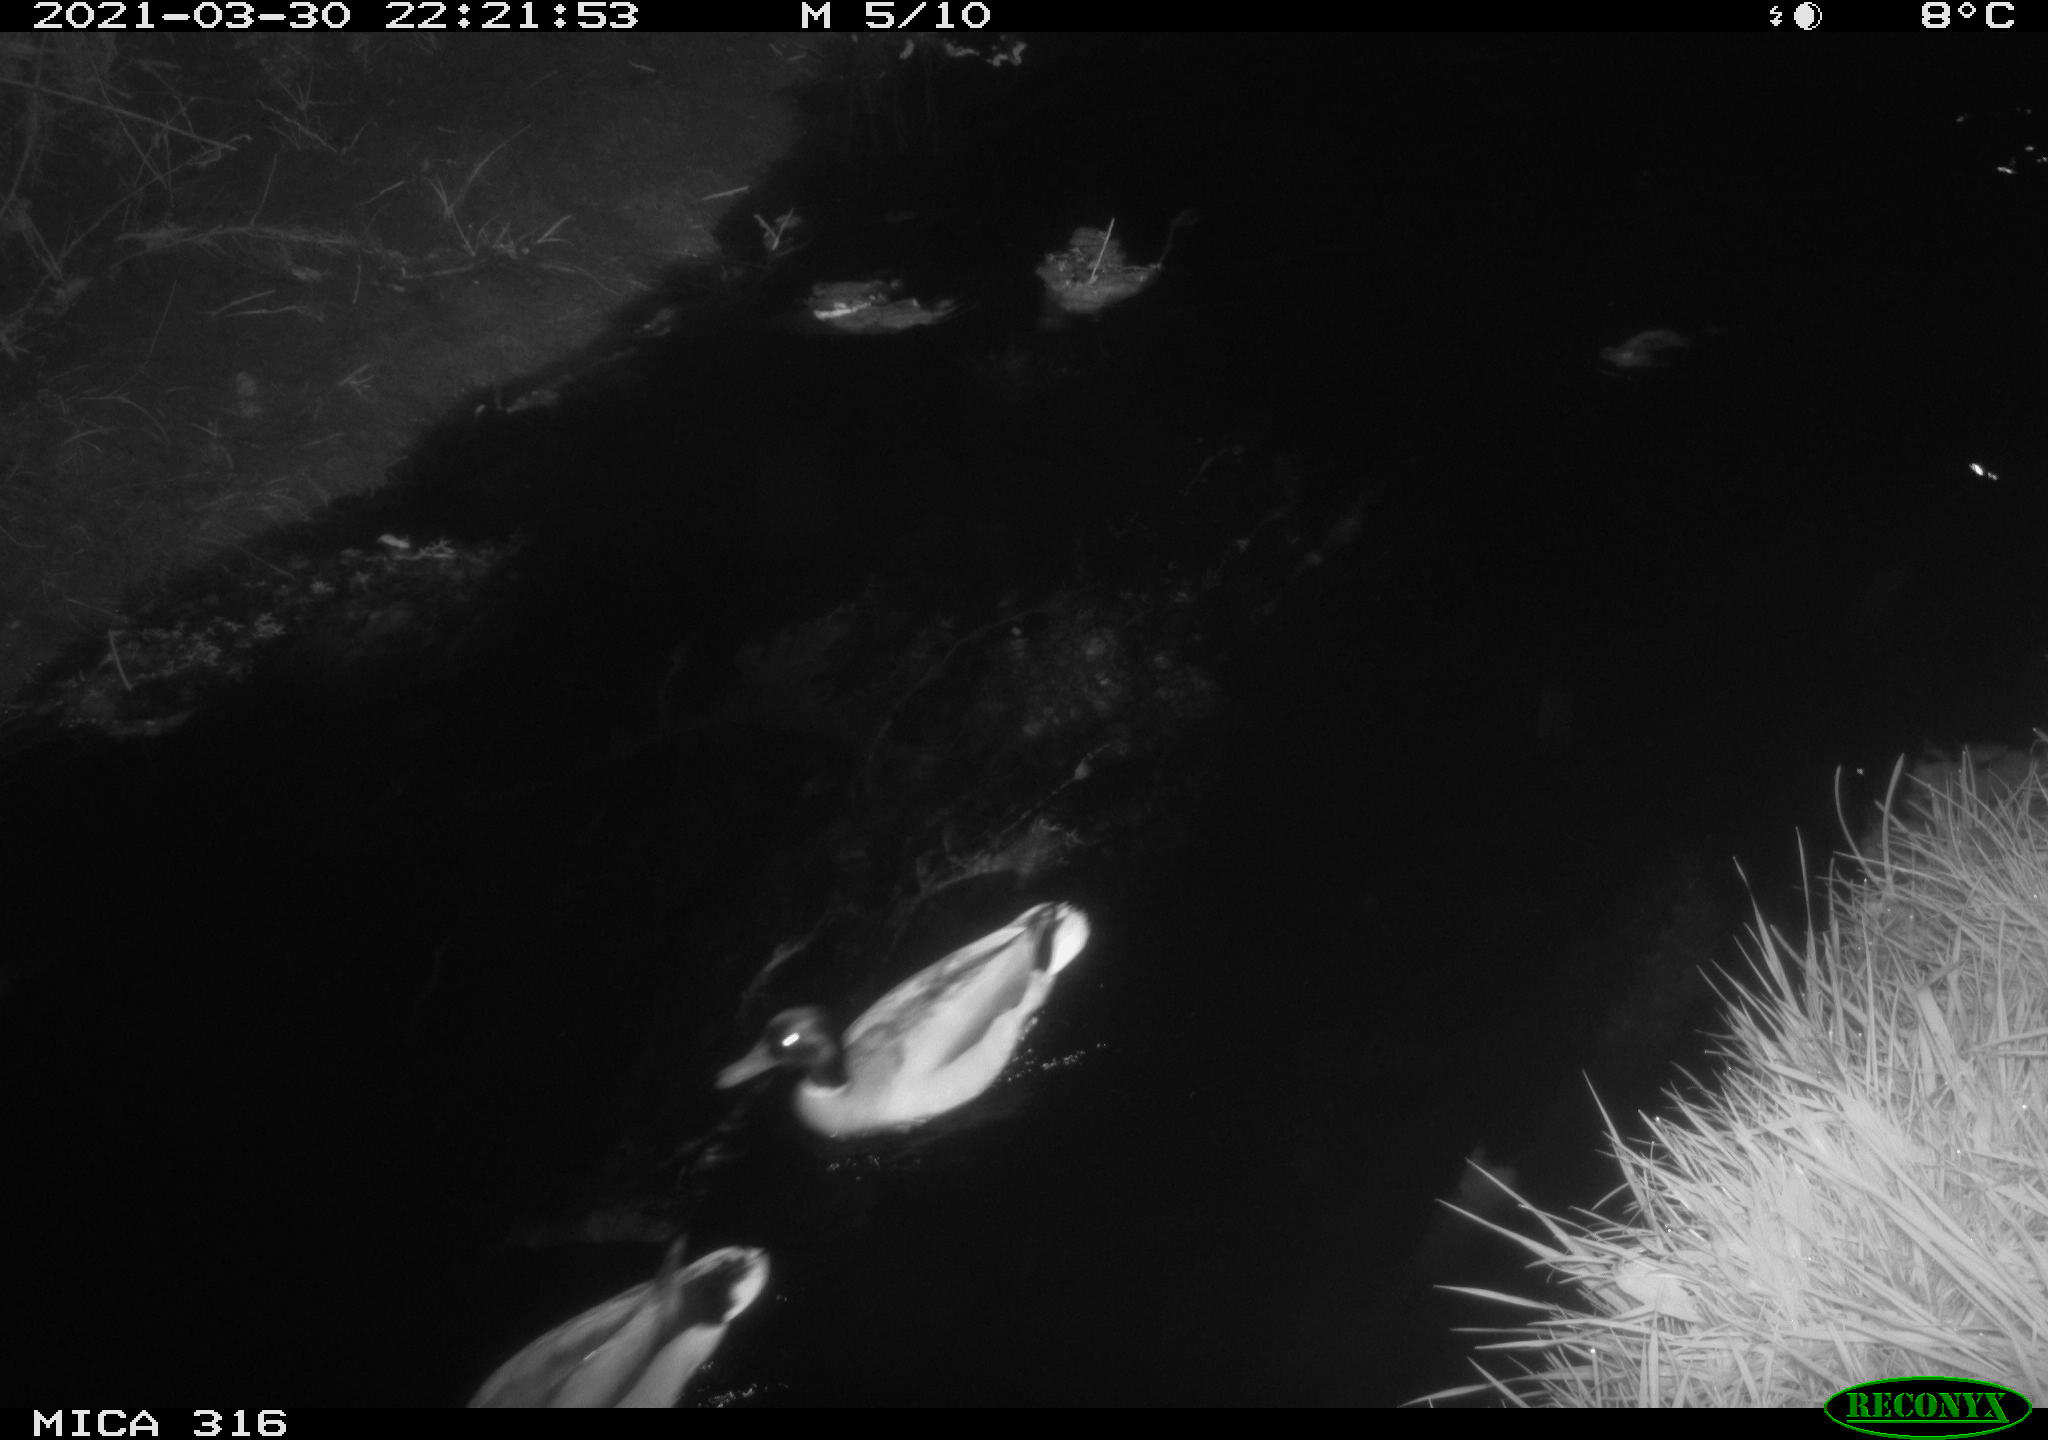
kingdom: Animalia
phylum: Chordata
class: Aves
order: Anseriformes
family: Anatidae
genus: Anas
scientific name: Anas platyrhynchos
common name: Mallard
